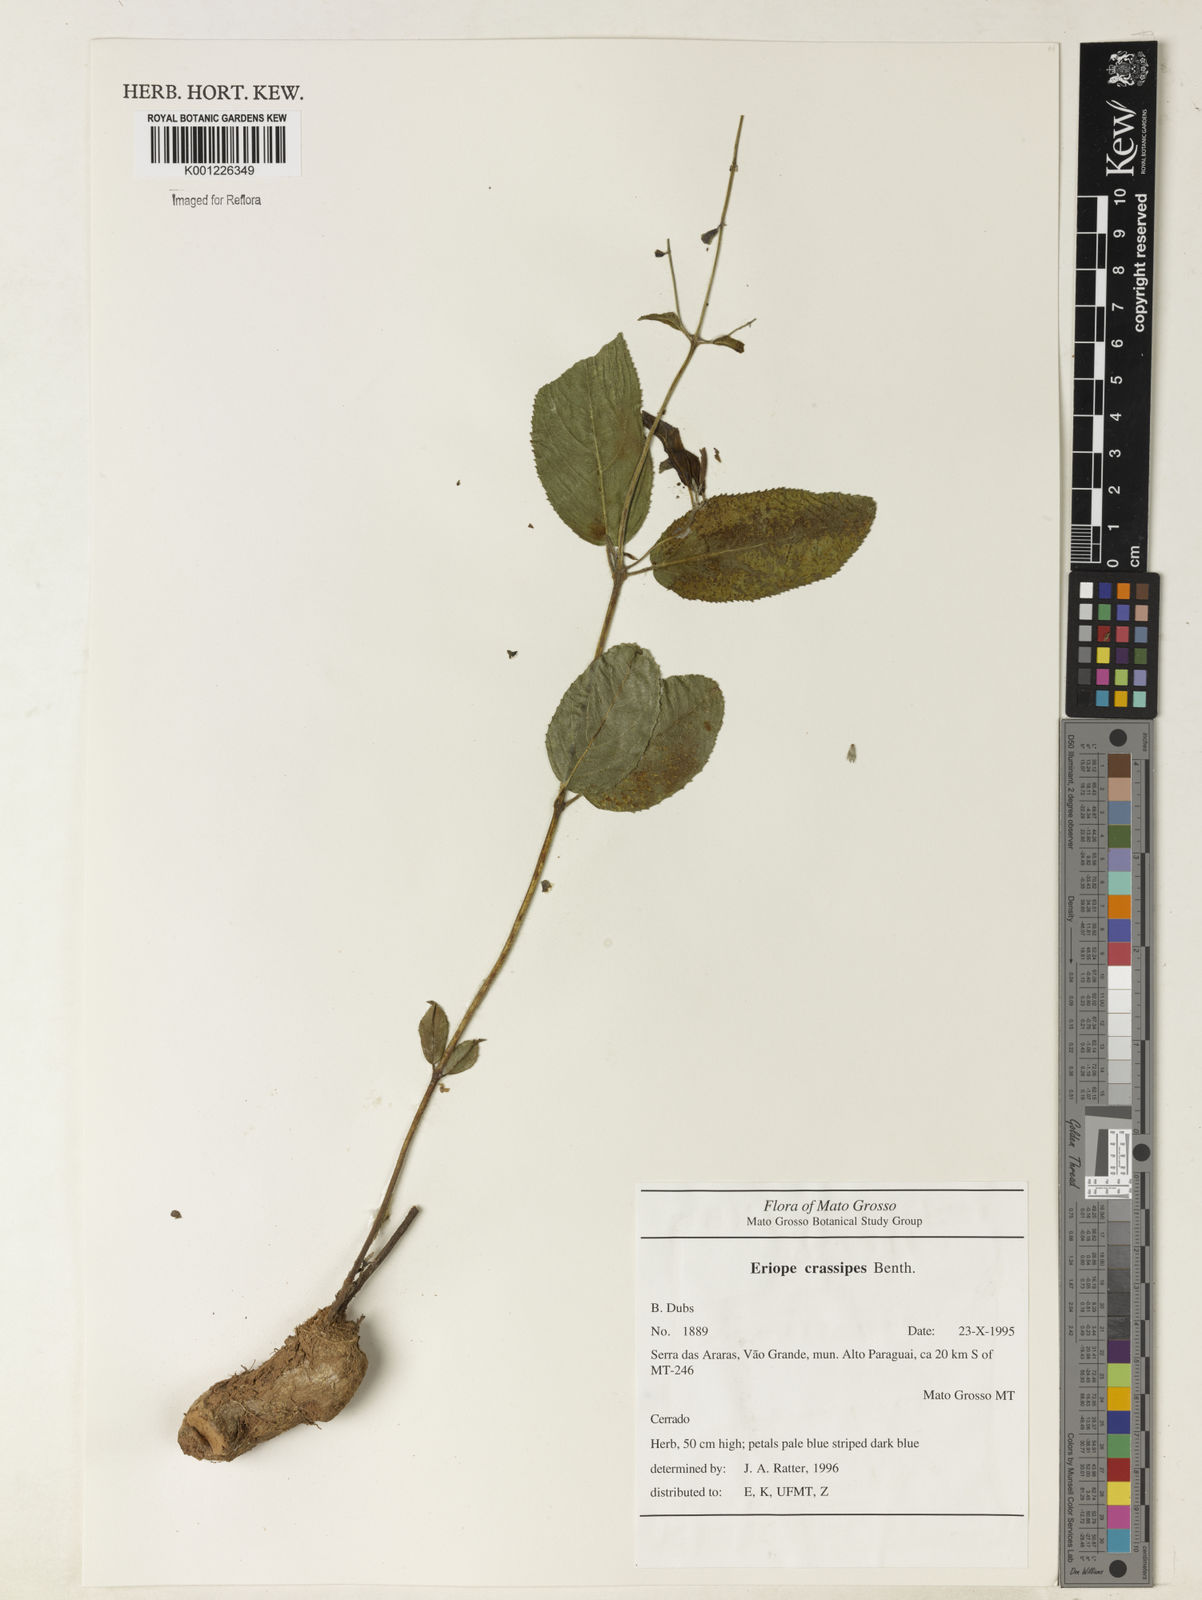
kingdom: Plantae
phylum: Tracheophyta
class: Magnoliopsida
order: Lamiales
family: Lamiaceae
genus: Eriope
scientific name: Eriope crassipes
